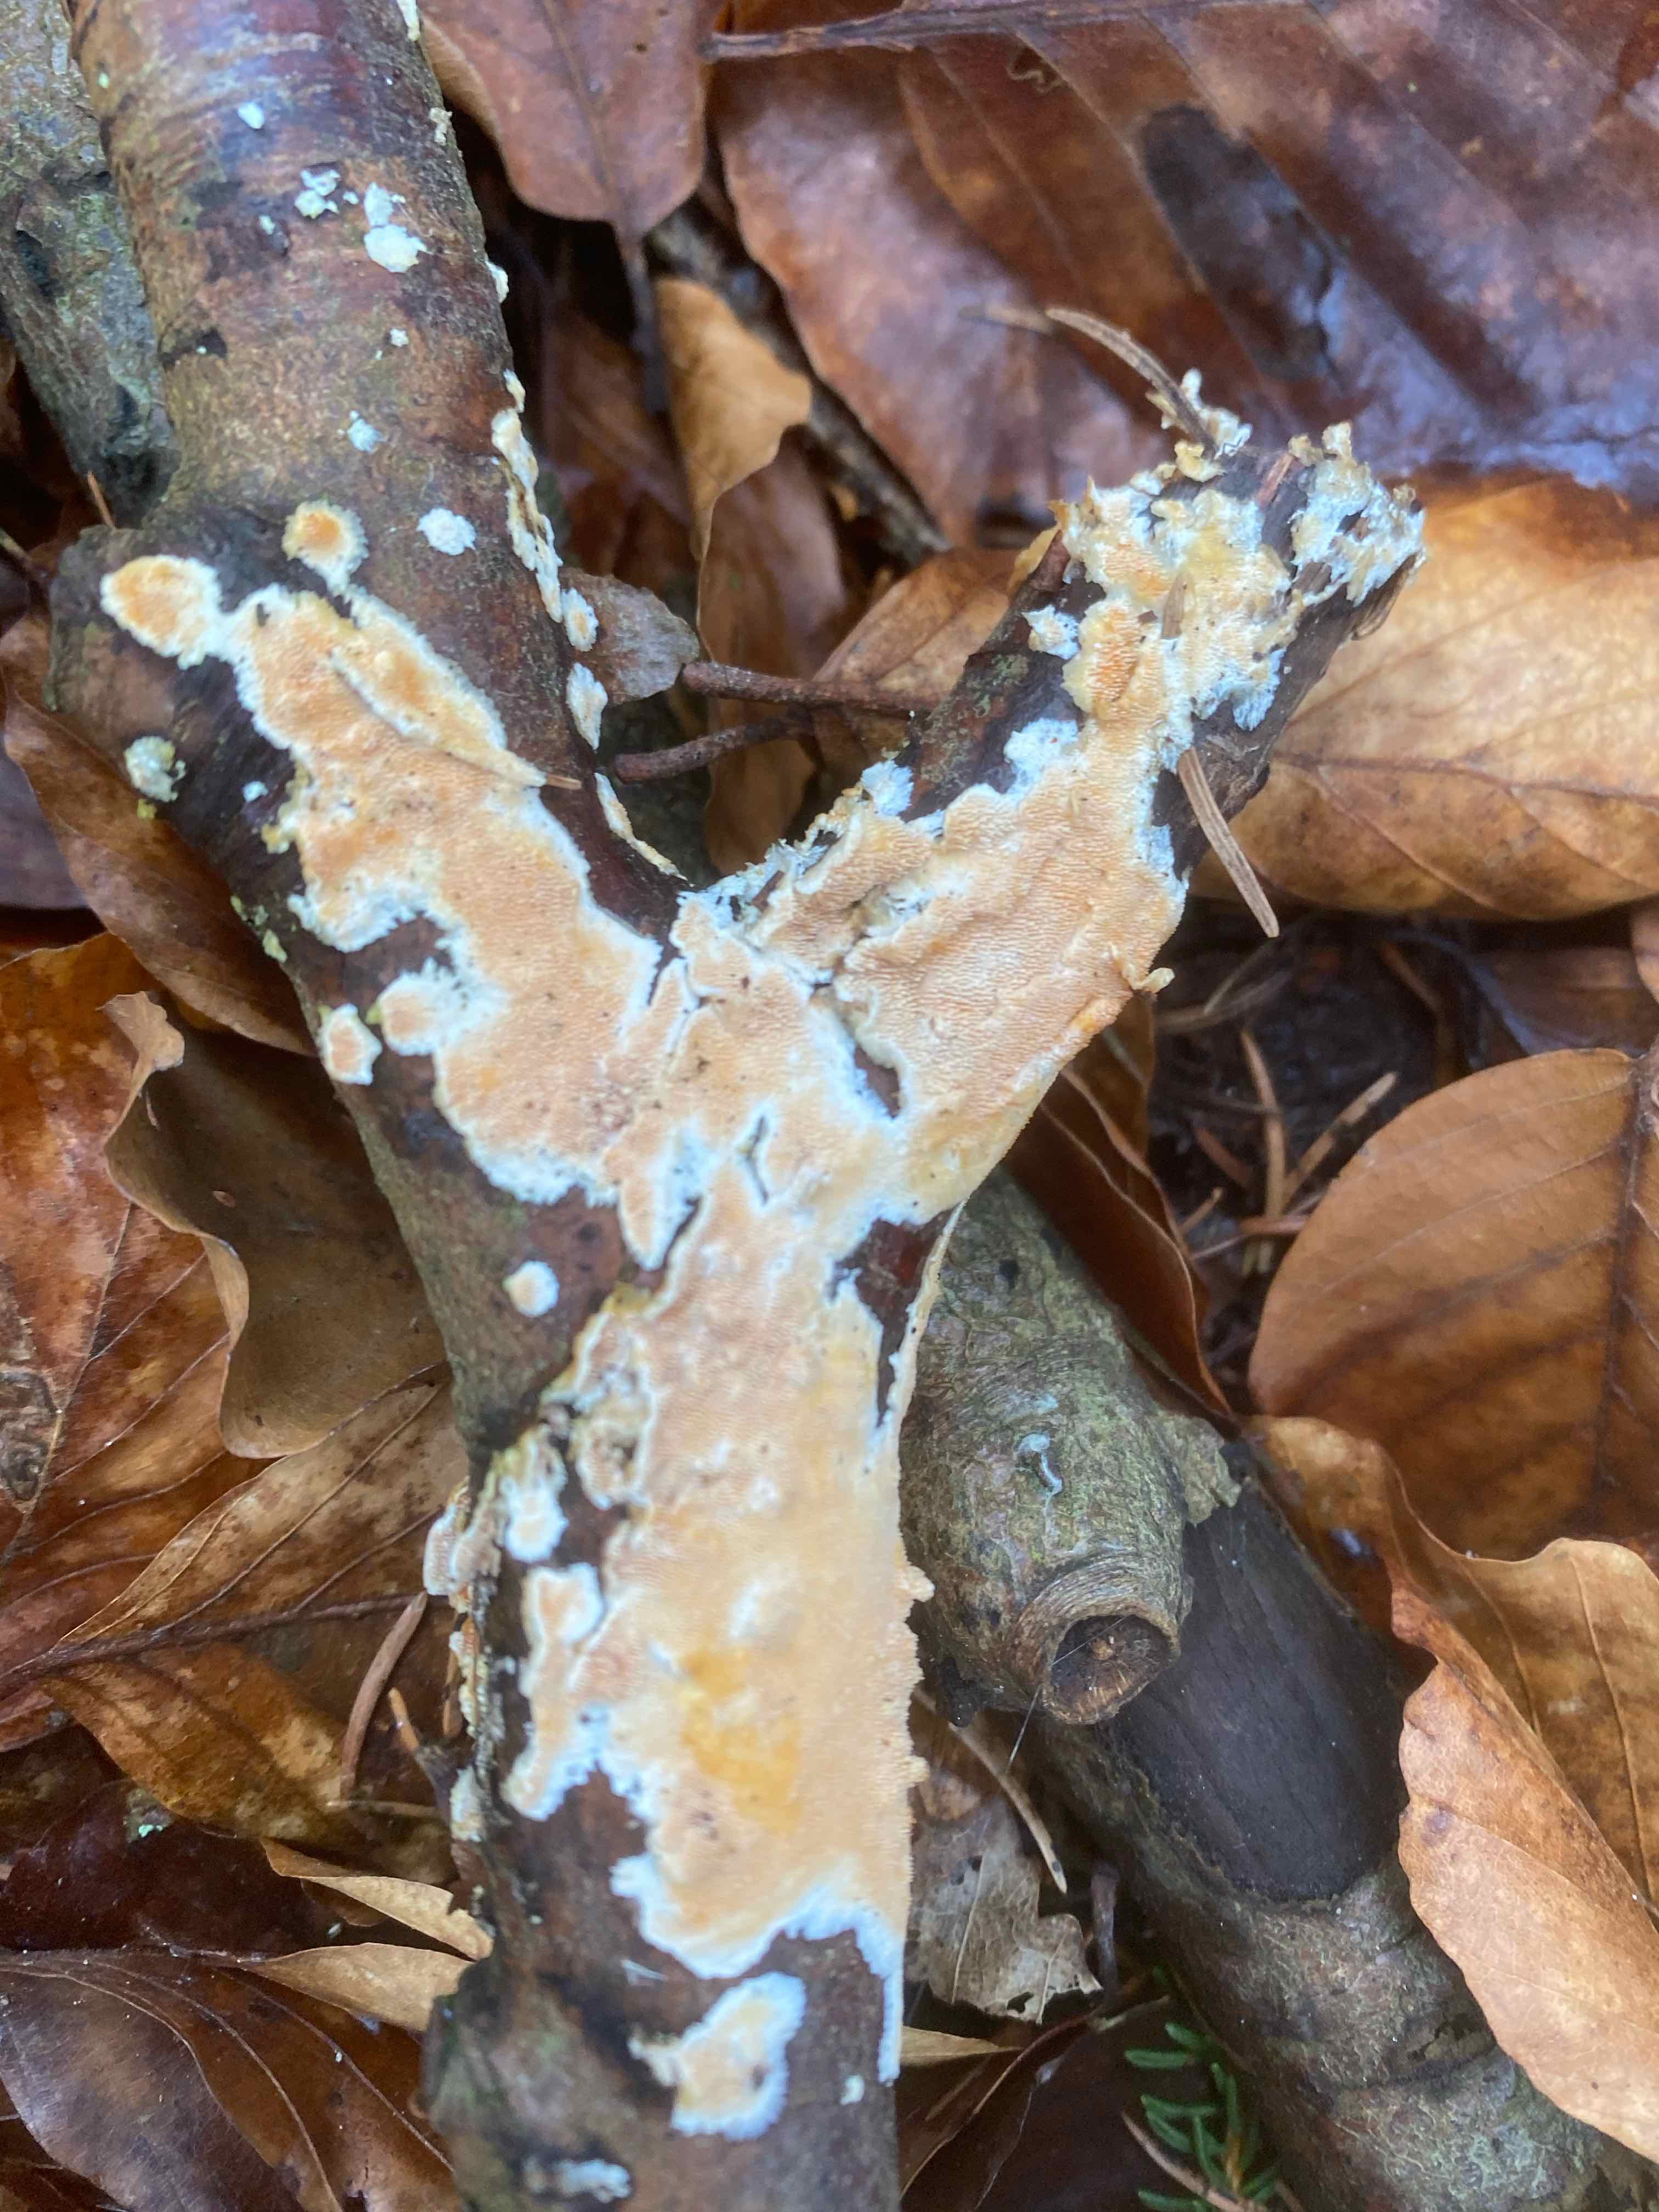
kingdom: Fungi
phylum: Basidiomycota
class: Agaricomycetes
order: Polyporales
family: Steccherinaceae
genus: Steccherinum
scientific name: Steccherinum ochraceum
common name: almindelig skønpig
